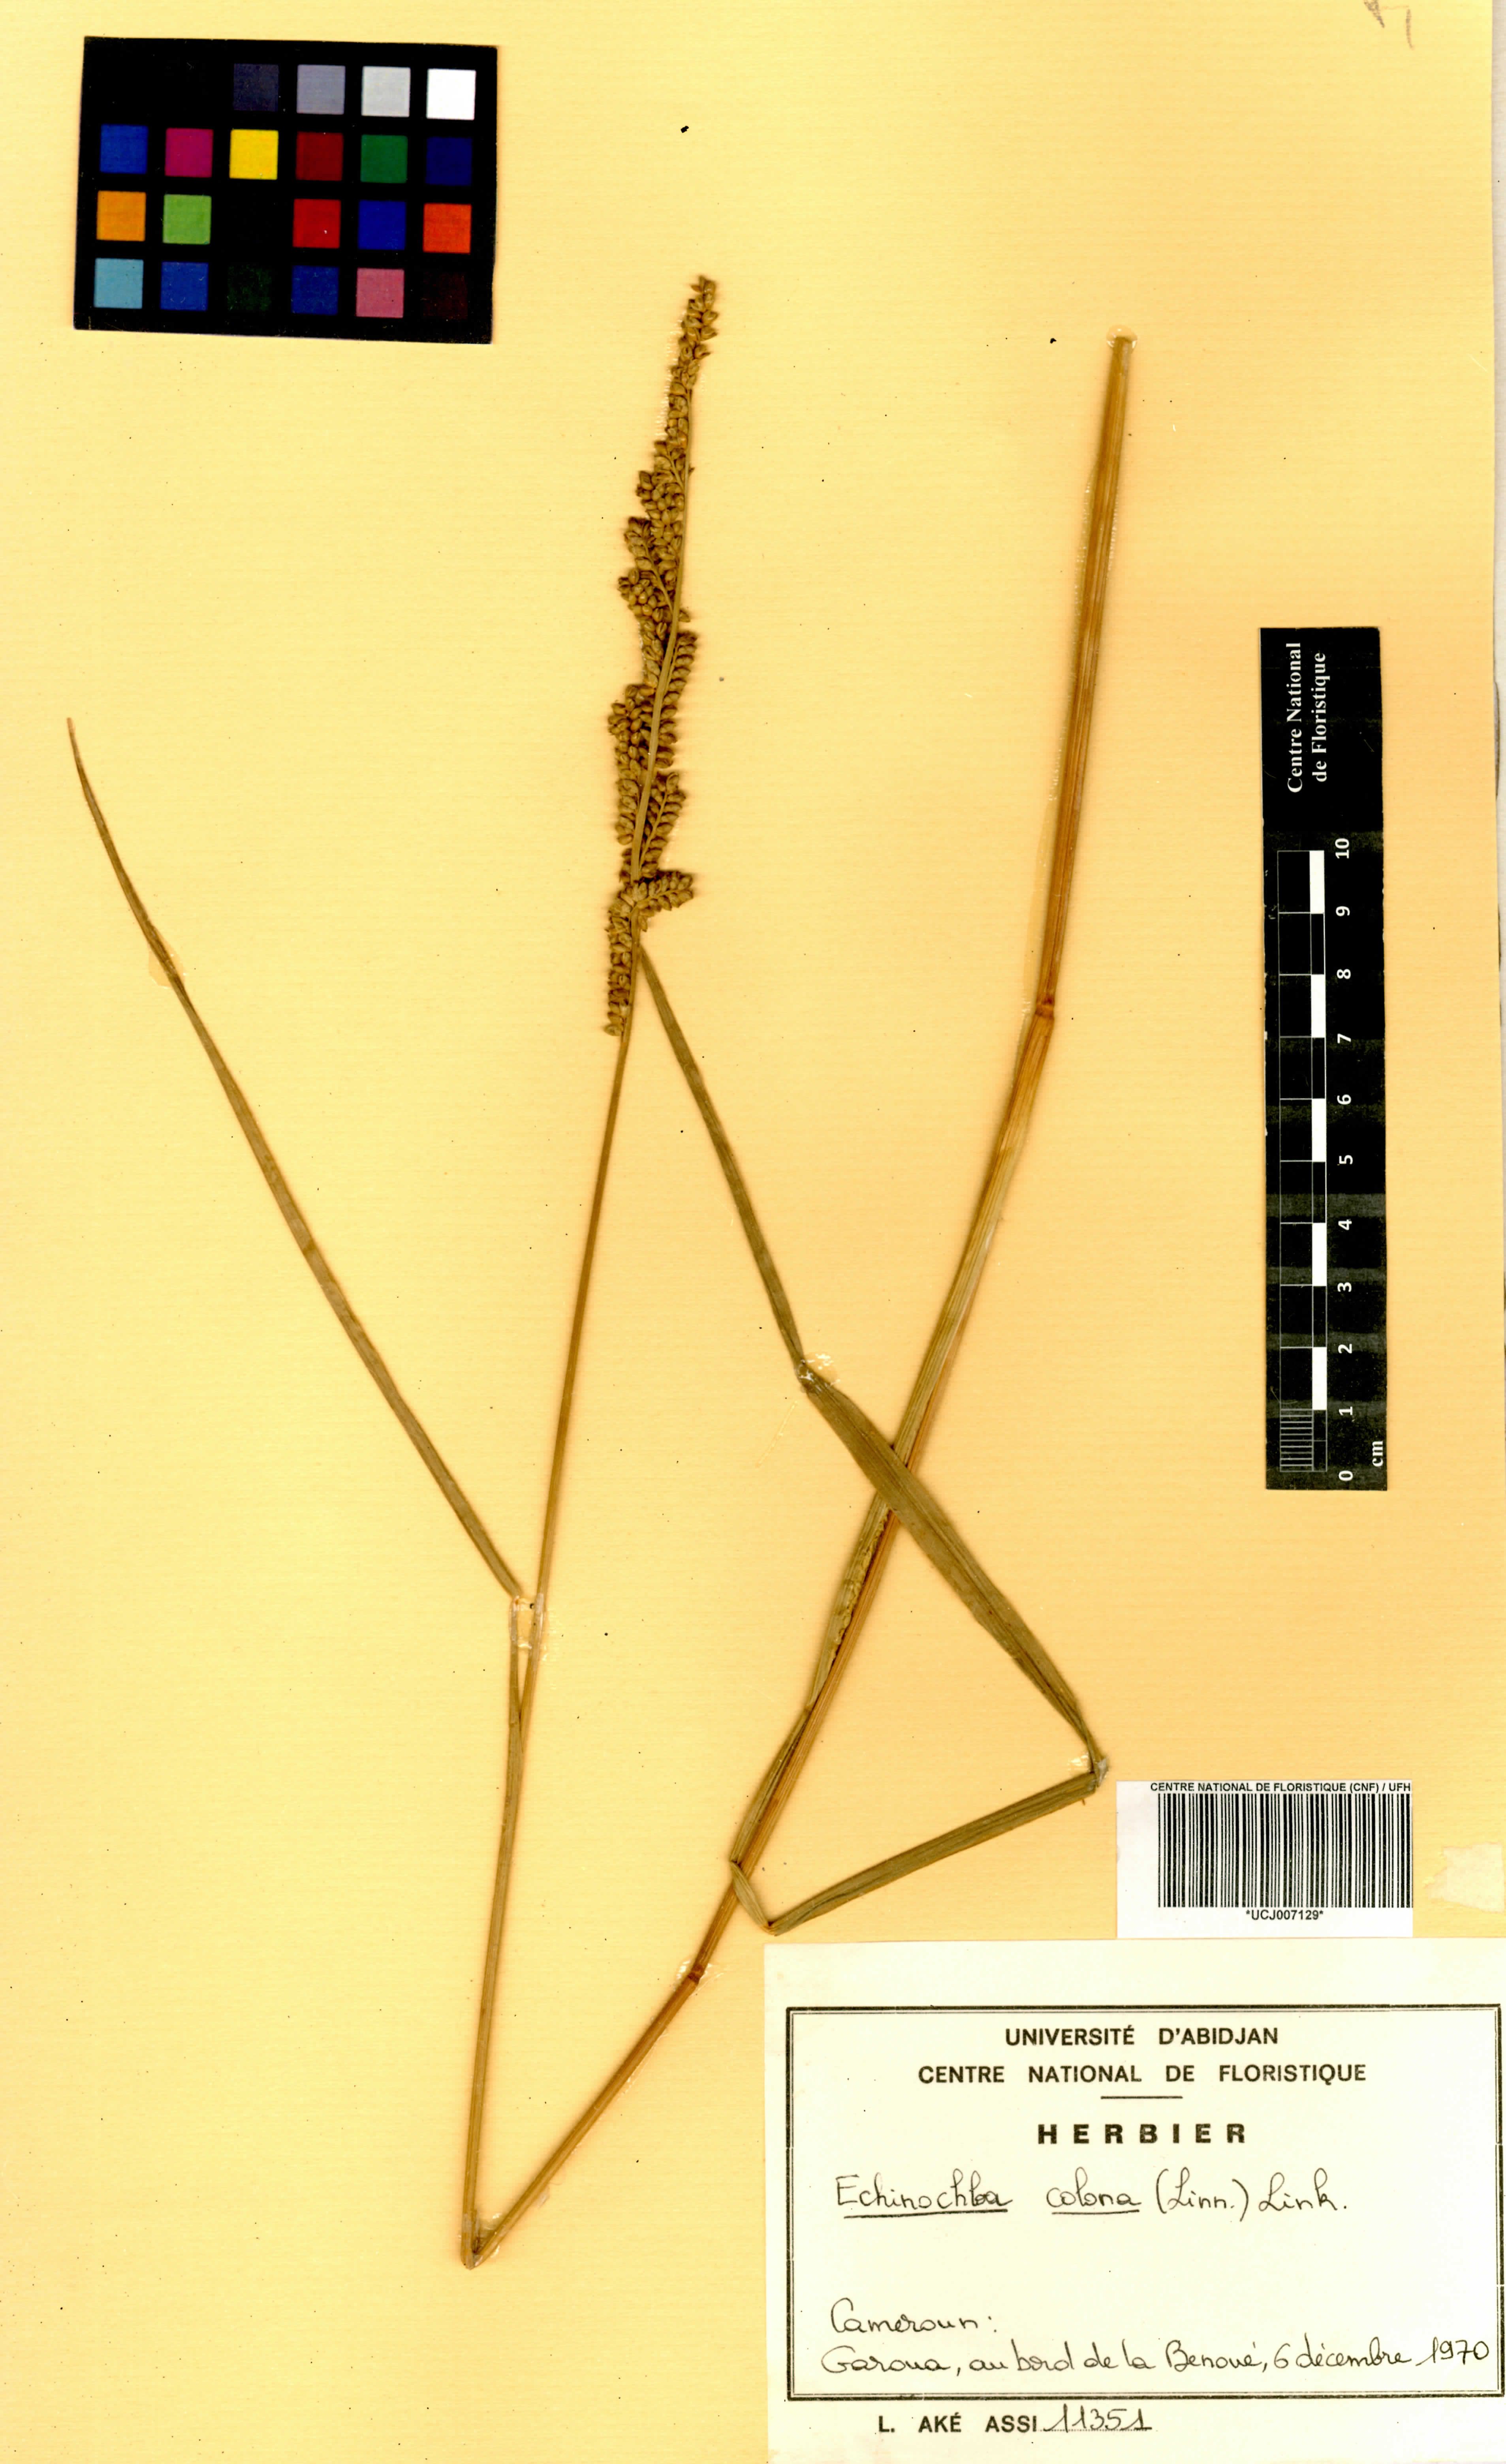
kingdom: Plantae
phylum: Tracheophyta
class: Liliopsida
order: Poales
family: Poaceae
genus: Echinochloa
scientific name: Echinochloa colonum
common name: Jungle rice
